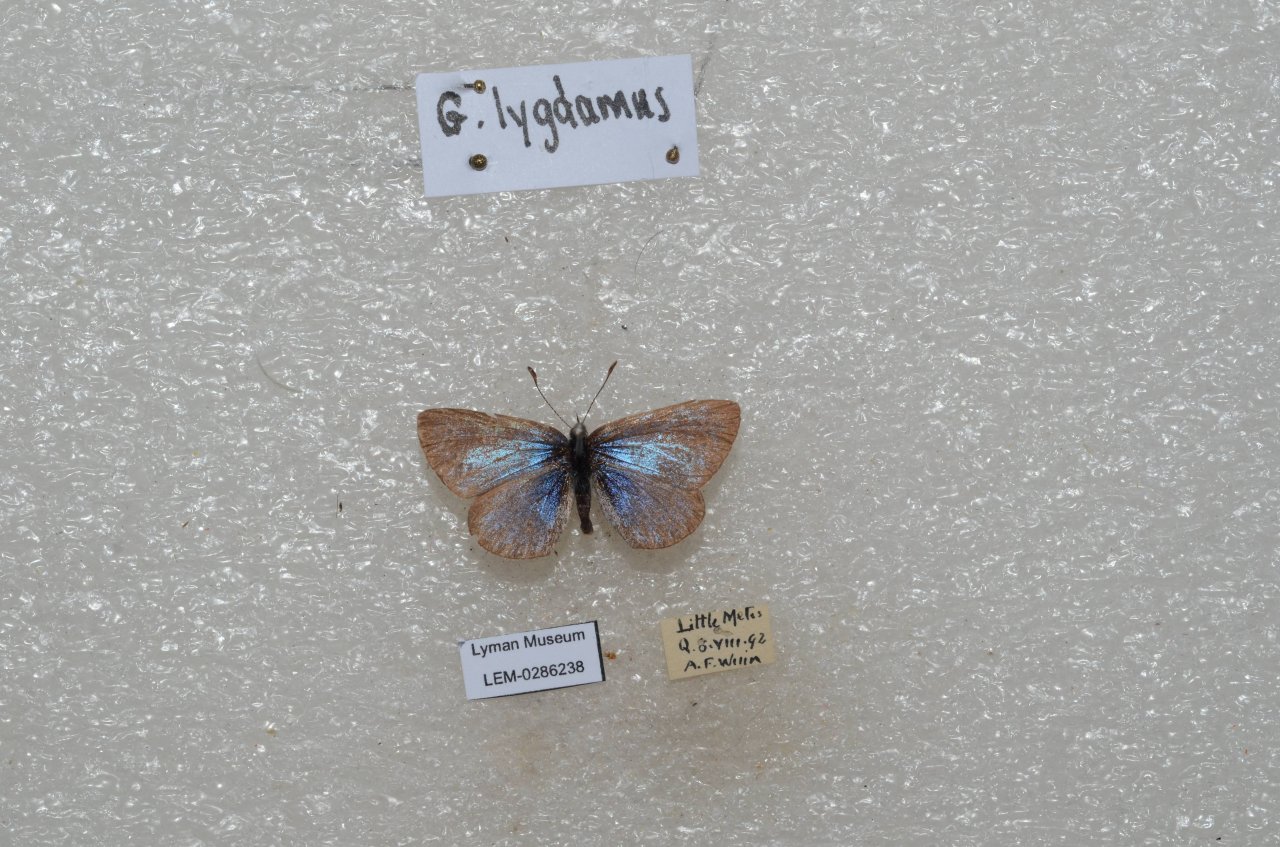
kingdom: Animalia
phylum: Arthropoda
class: Insecta
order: Lepidoptera
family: Lycaenidae
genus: Glaucopsyche
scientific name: Glaucopsyche lygdamus
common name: Silvery Blue
